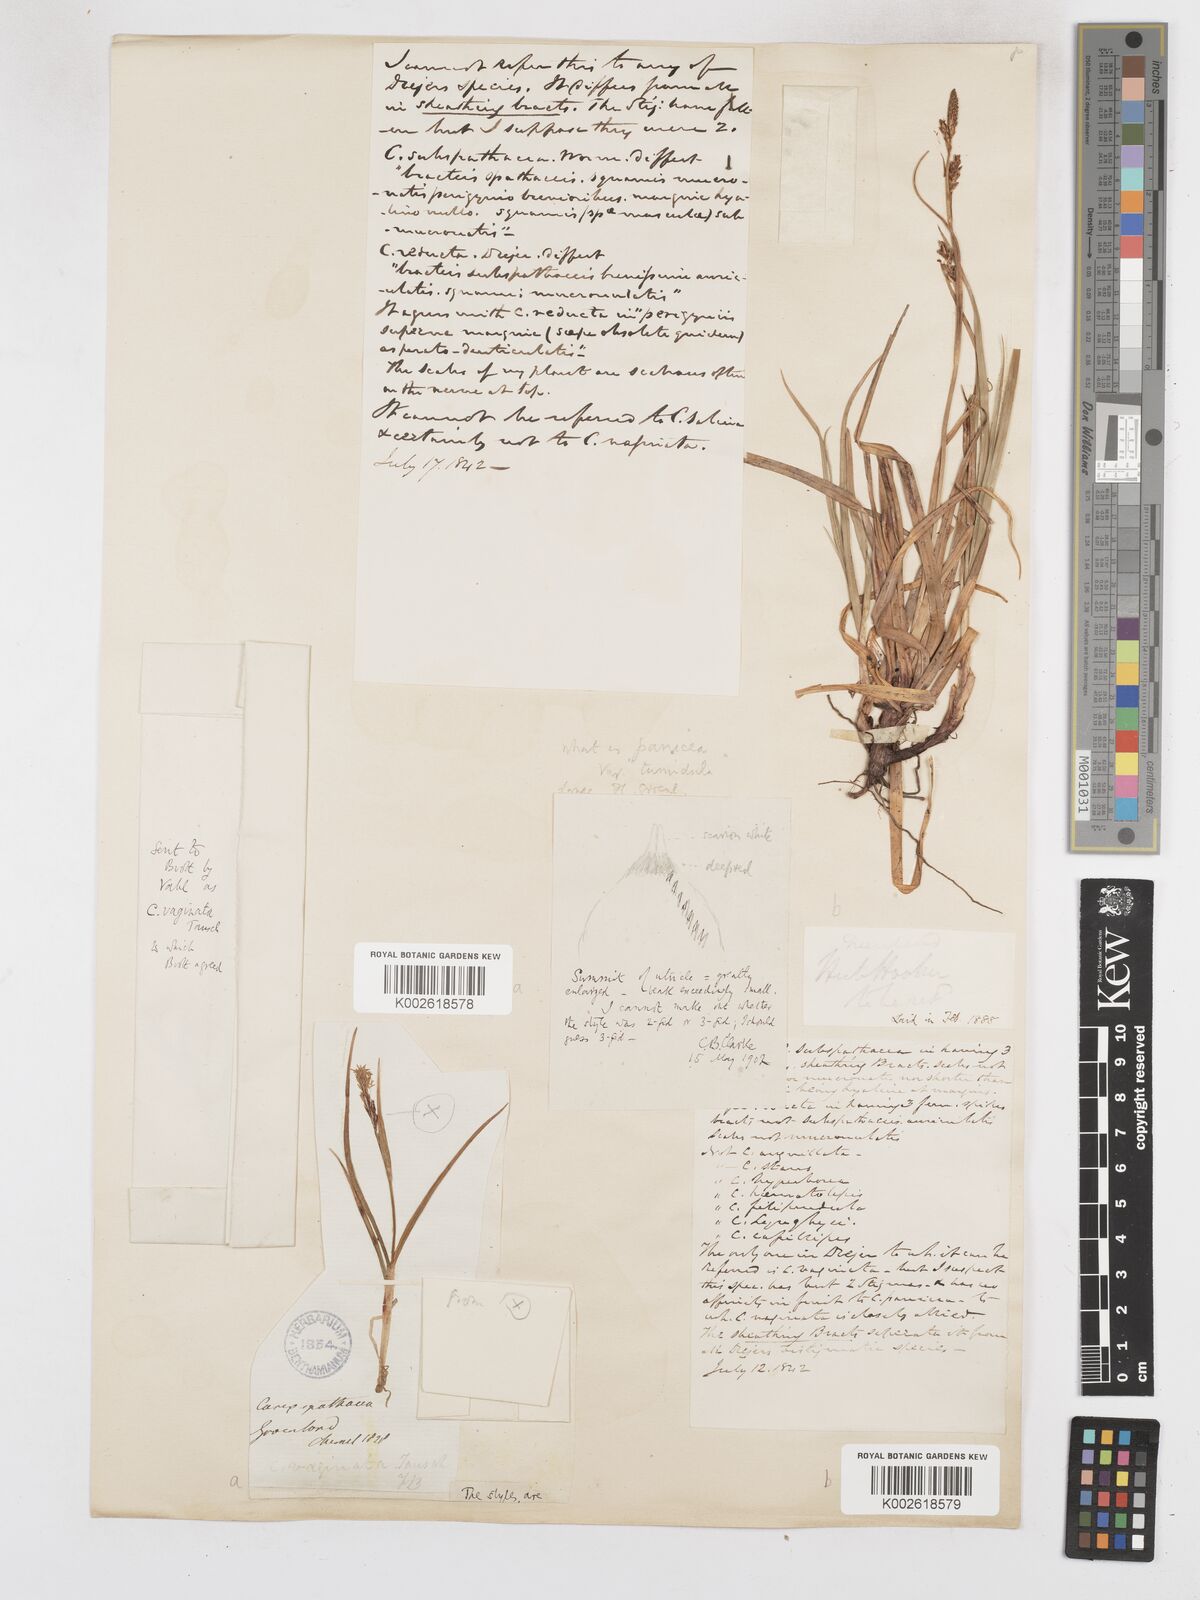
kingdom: Plantae
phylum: Tracheophyta
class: Liliopsida
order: Poales
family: Cyperaceae
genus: Carex
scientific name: Carex vaginata
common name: Sheathed sedge
